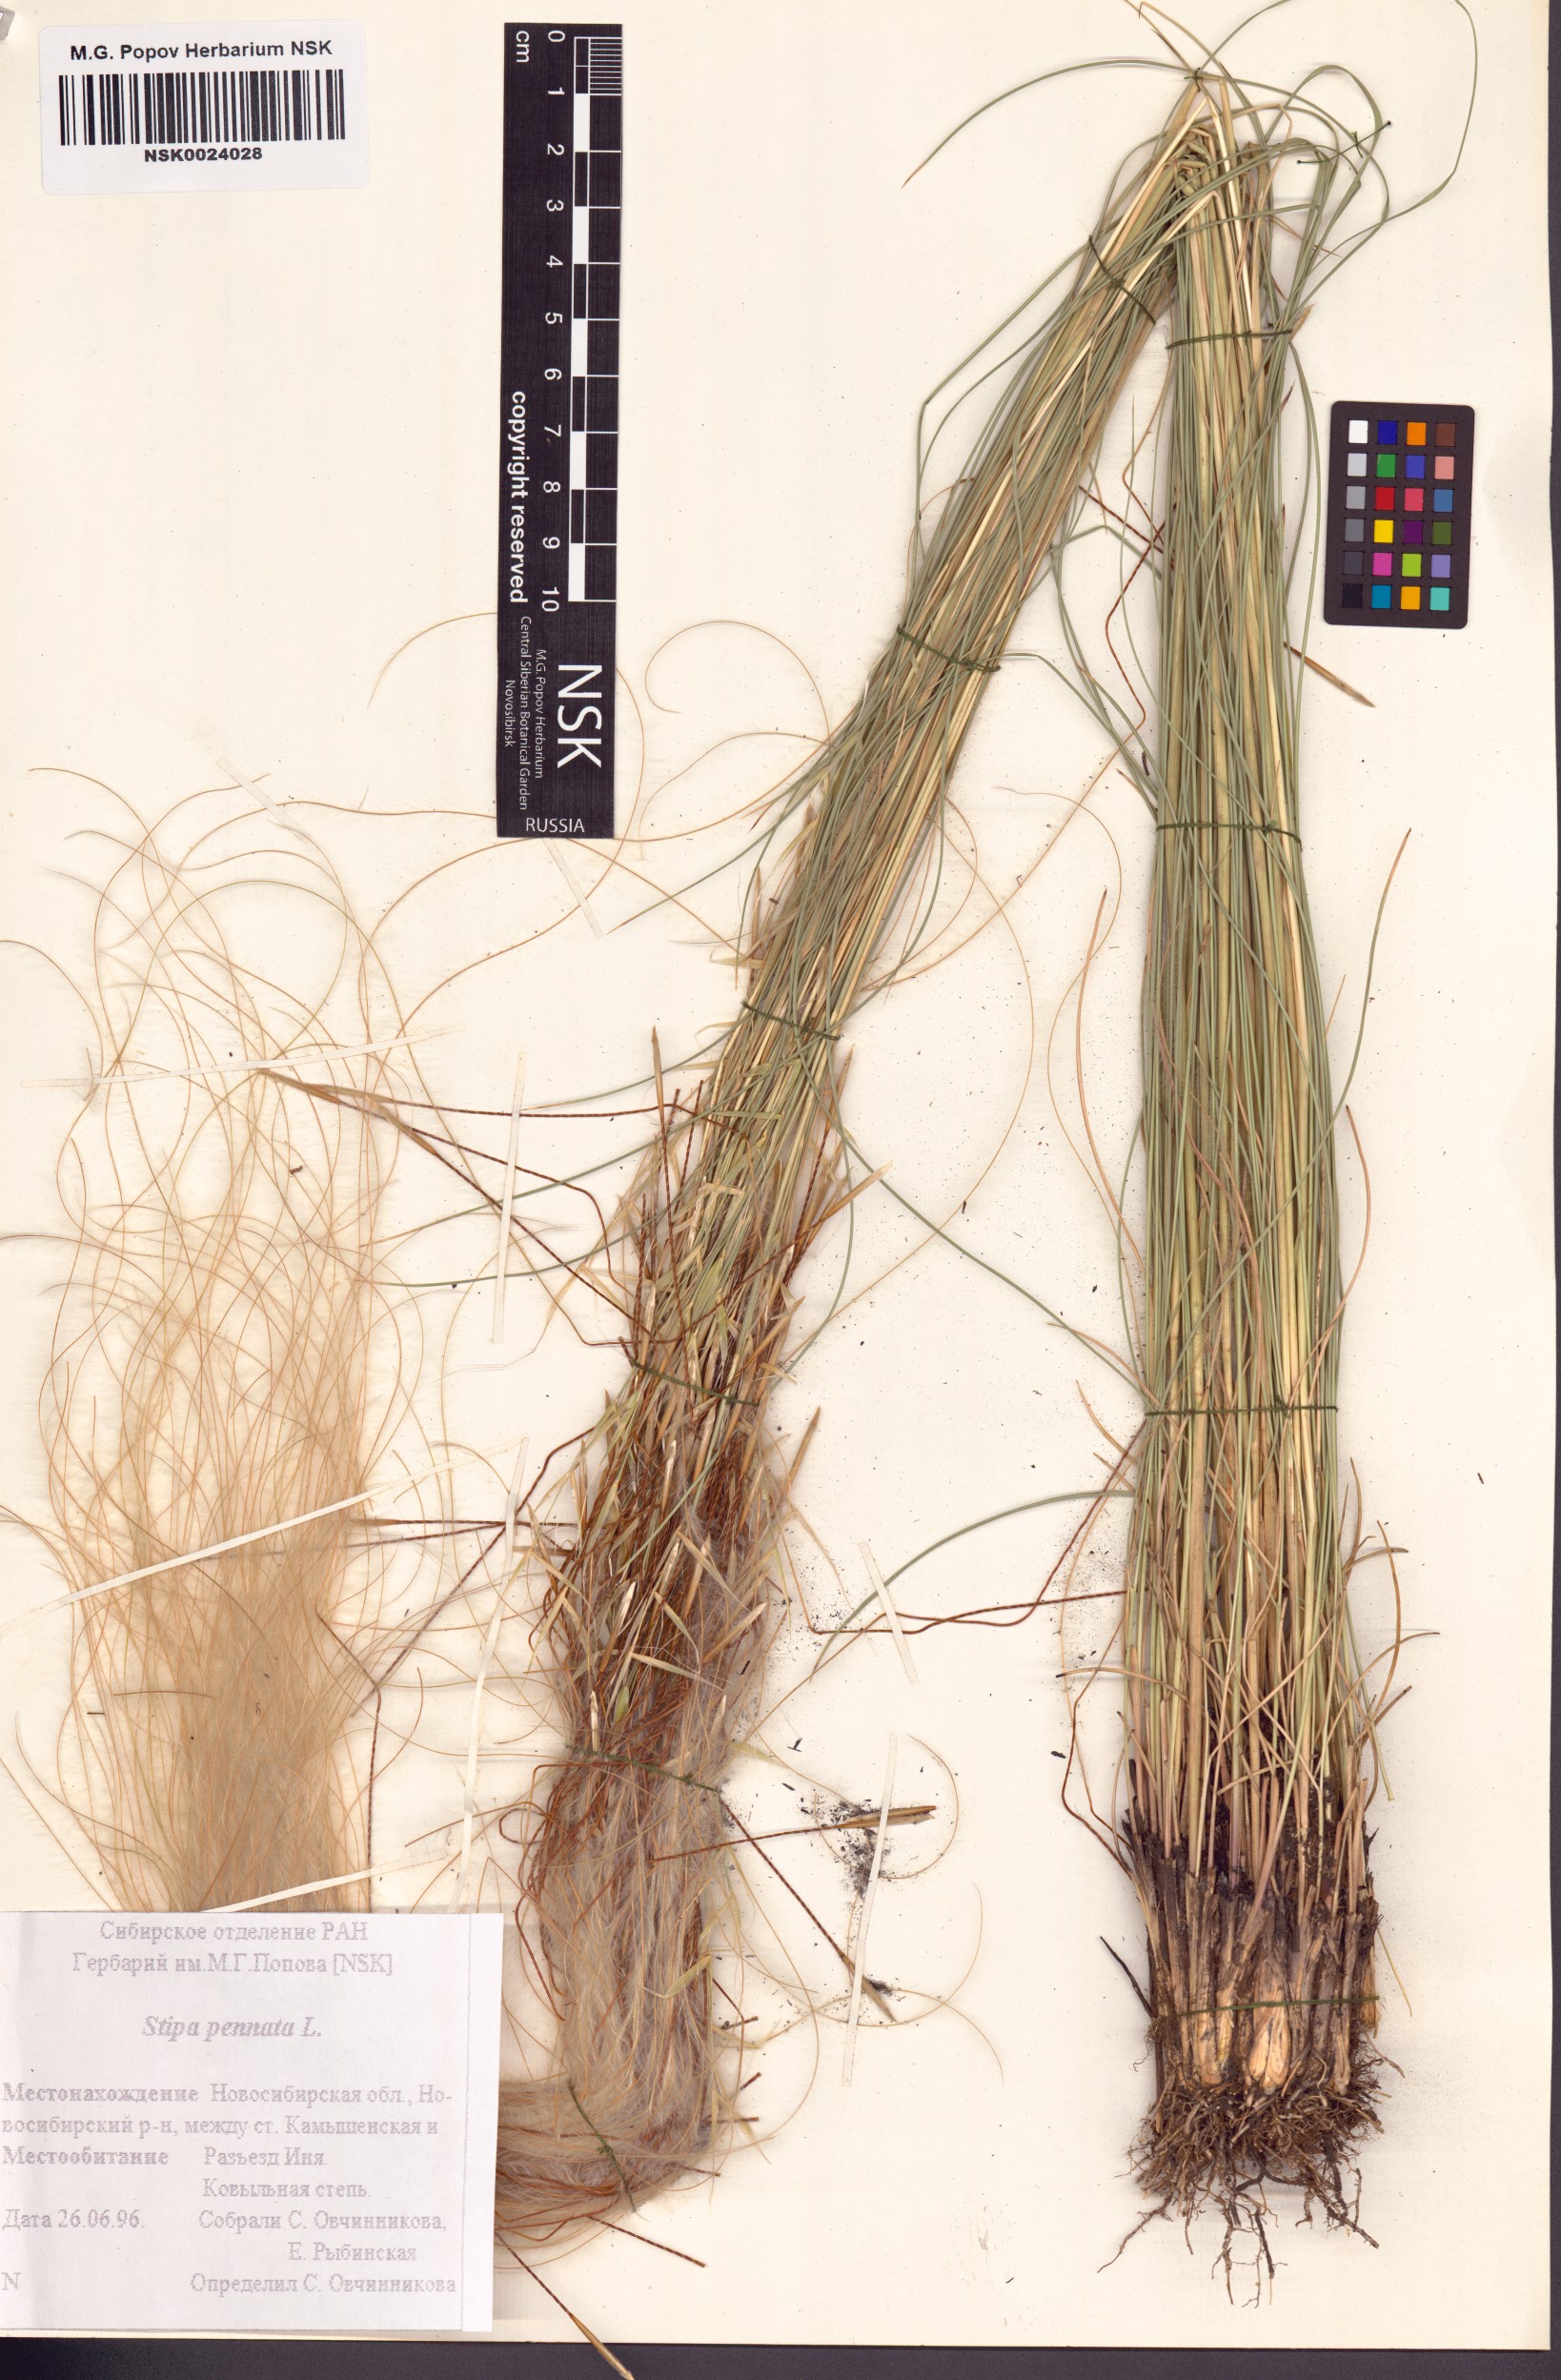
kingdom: Plantae
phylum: Tracheophyta
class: Liliopsida
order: Poales
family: Poaceae
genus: Stipa
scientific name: Stipa pennata
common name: European feather grass
